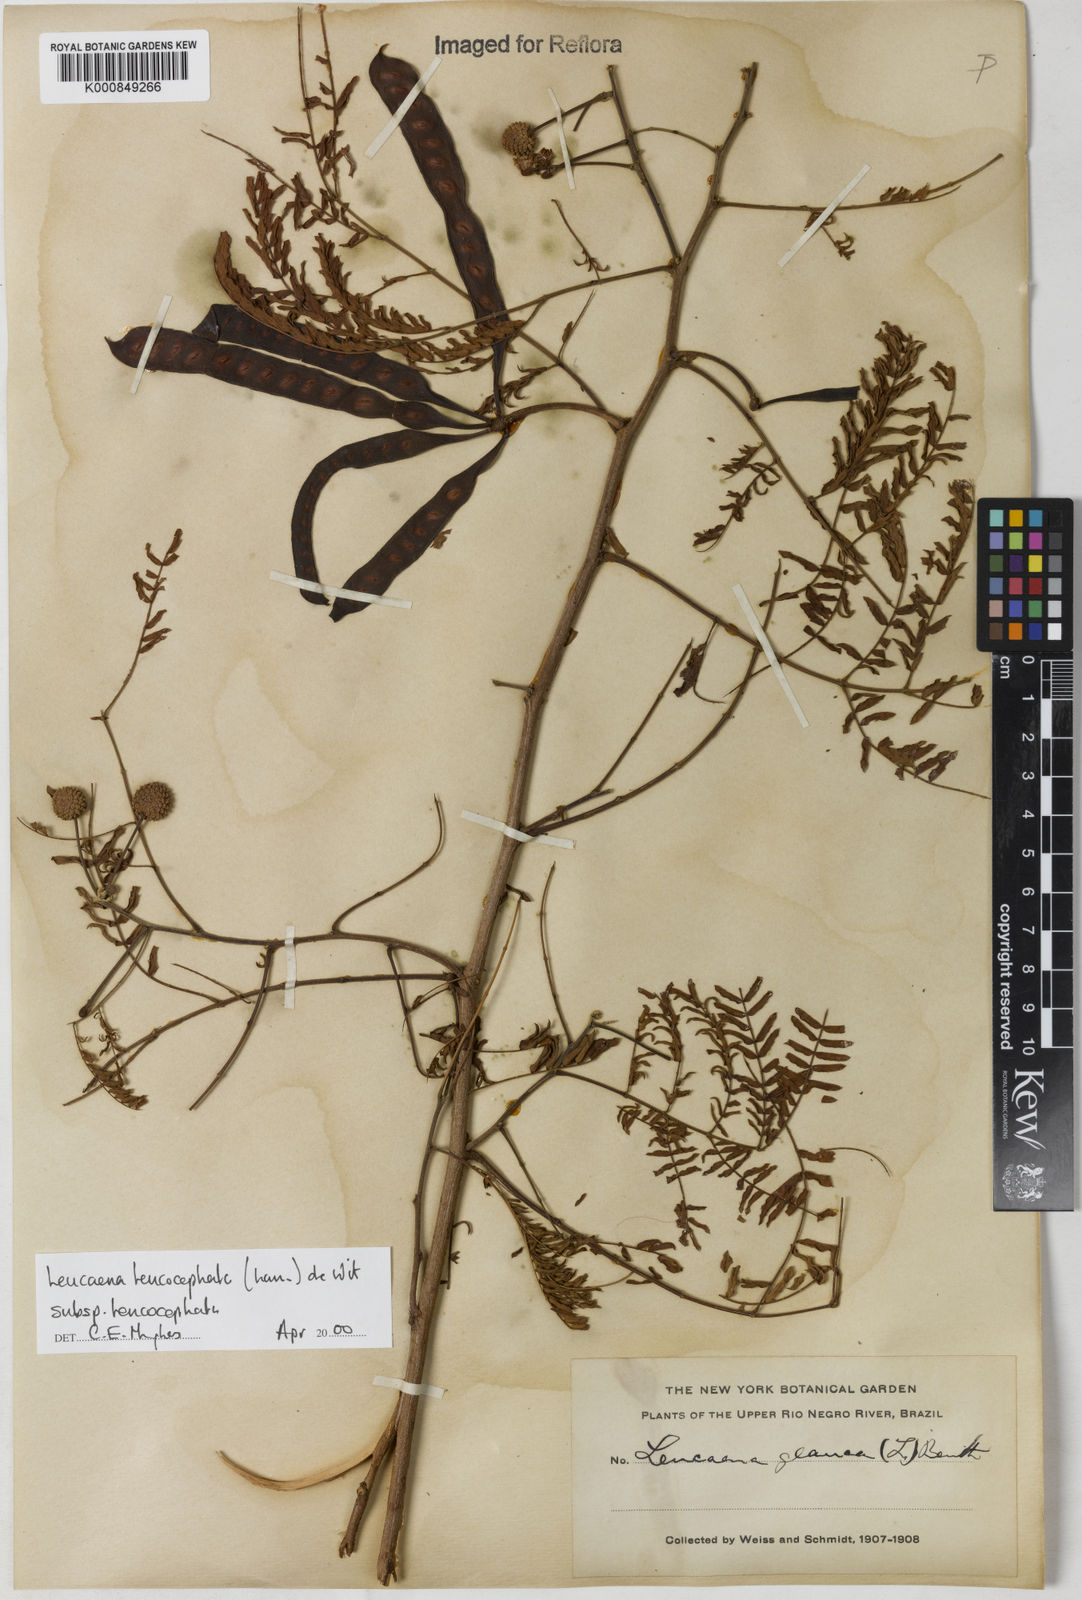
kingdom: Plantae
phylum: Tracheophyta
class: Magnoliopsida
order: Fabales
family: Fabaceae
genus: Leucaena
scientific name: Leucaena leucocephala
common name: White leadtree
